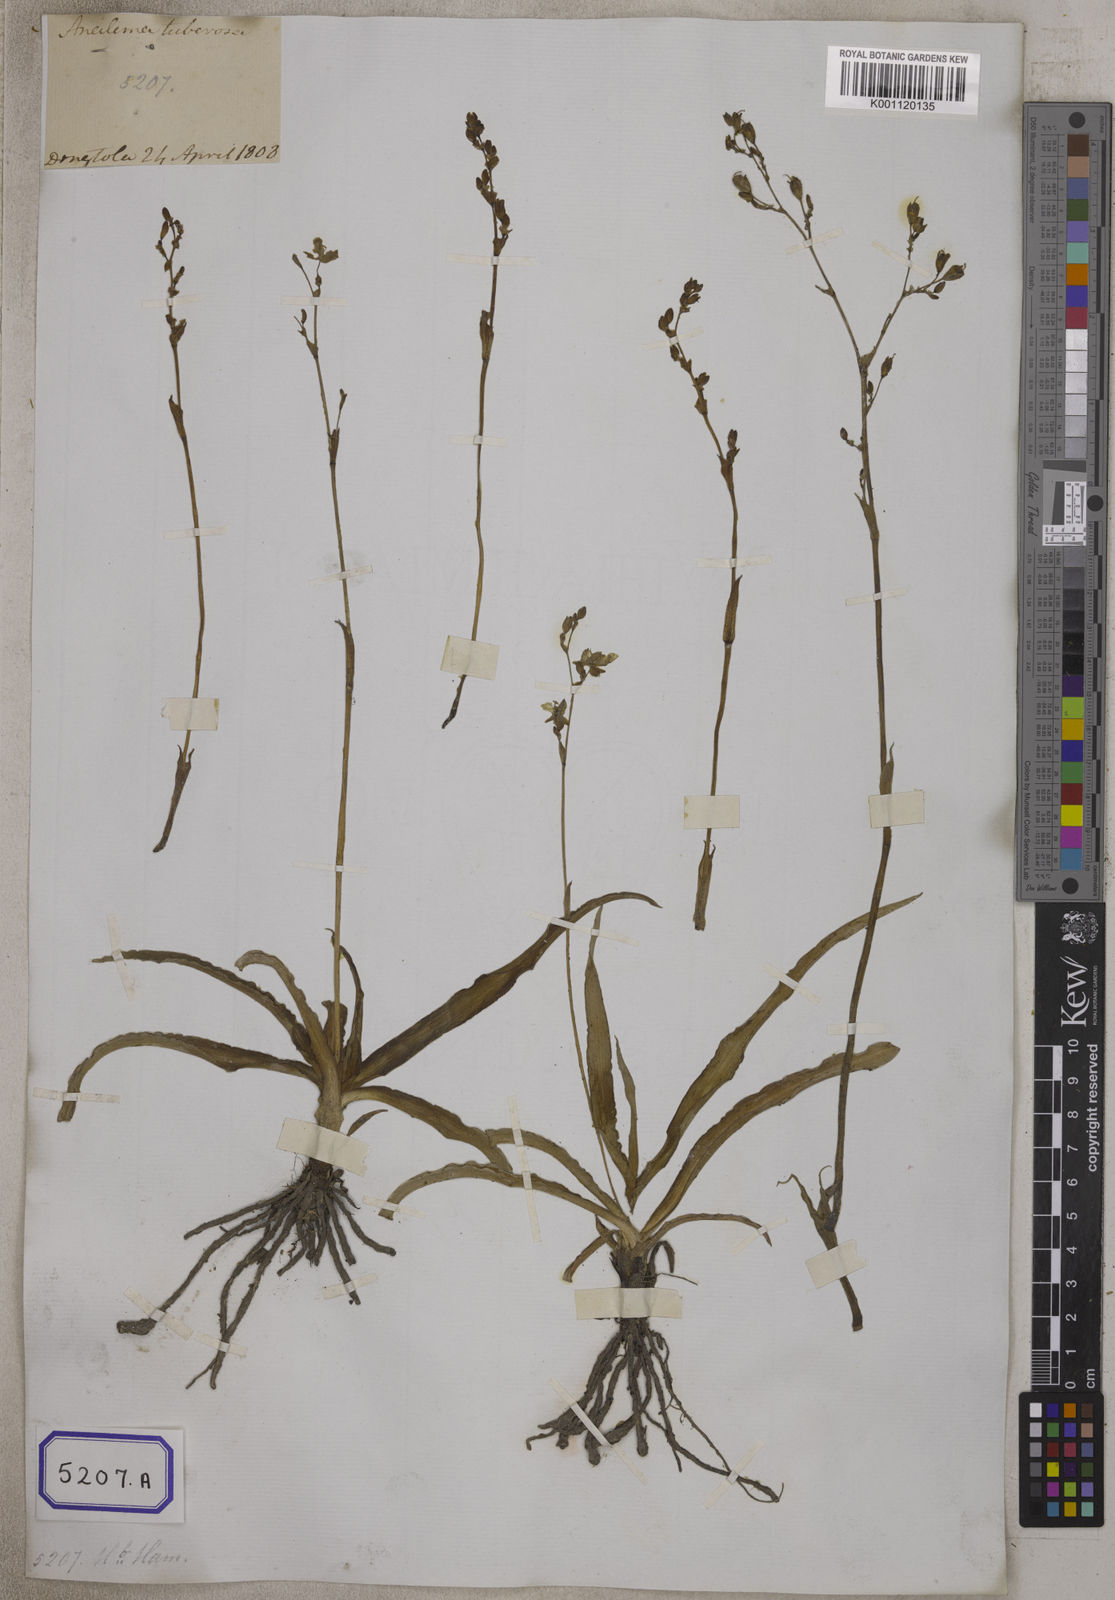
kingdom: Plantae
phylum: Tracheophyta
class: Liliopsida
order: Commelinales
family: Commelinaceae
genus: Aneilema
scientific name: Aneilema
